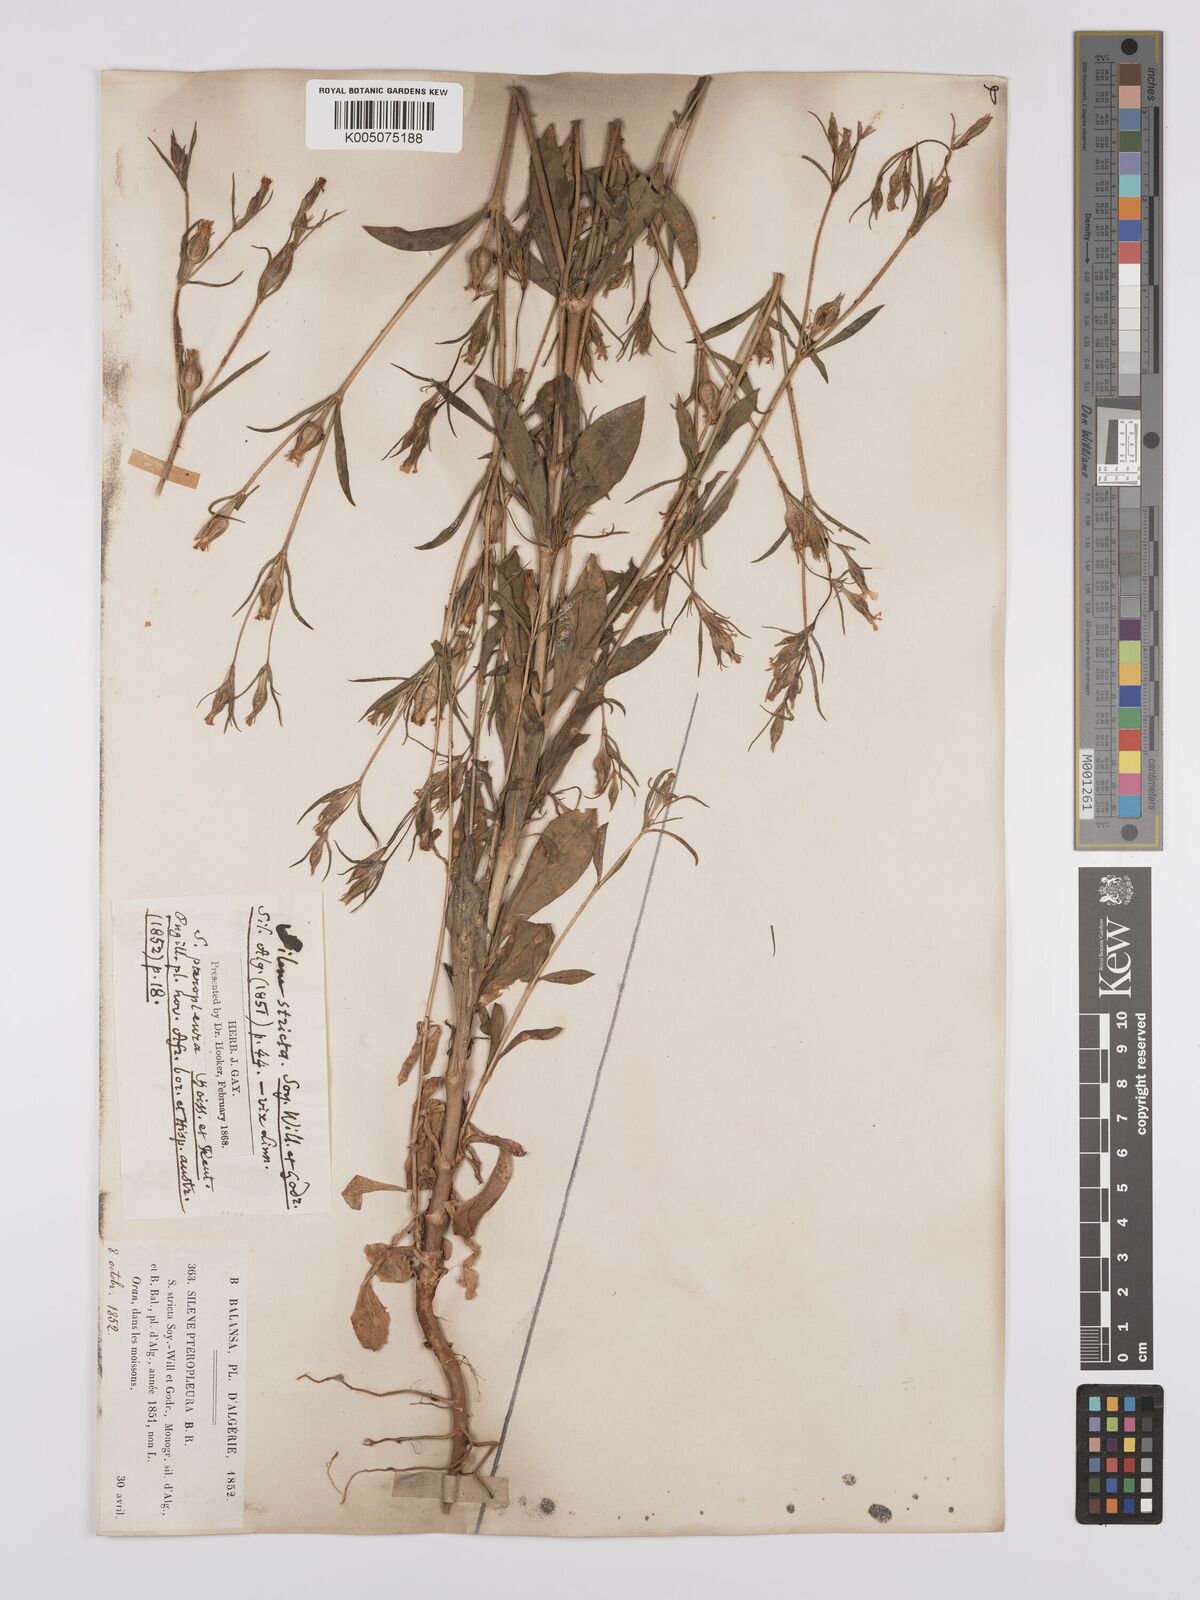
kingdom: Plantae
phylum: Tracheophyta
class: Magnoliopsida
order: Caryophyllales
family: Caryophyllaceae
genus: Silene
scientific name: Silene stricta
